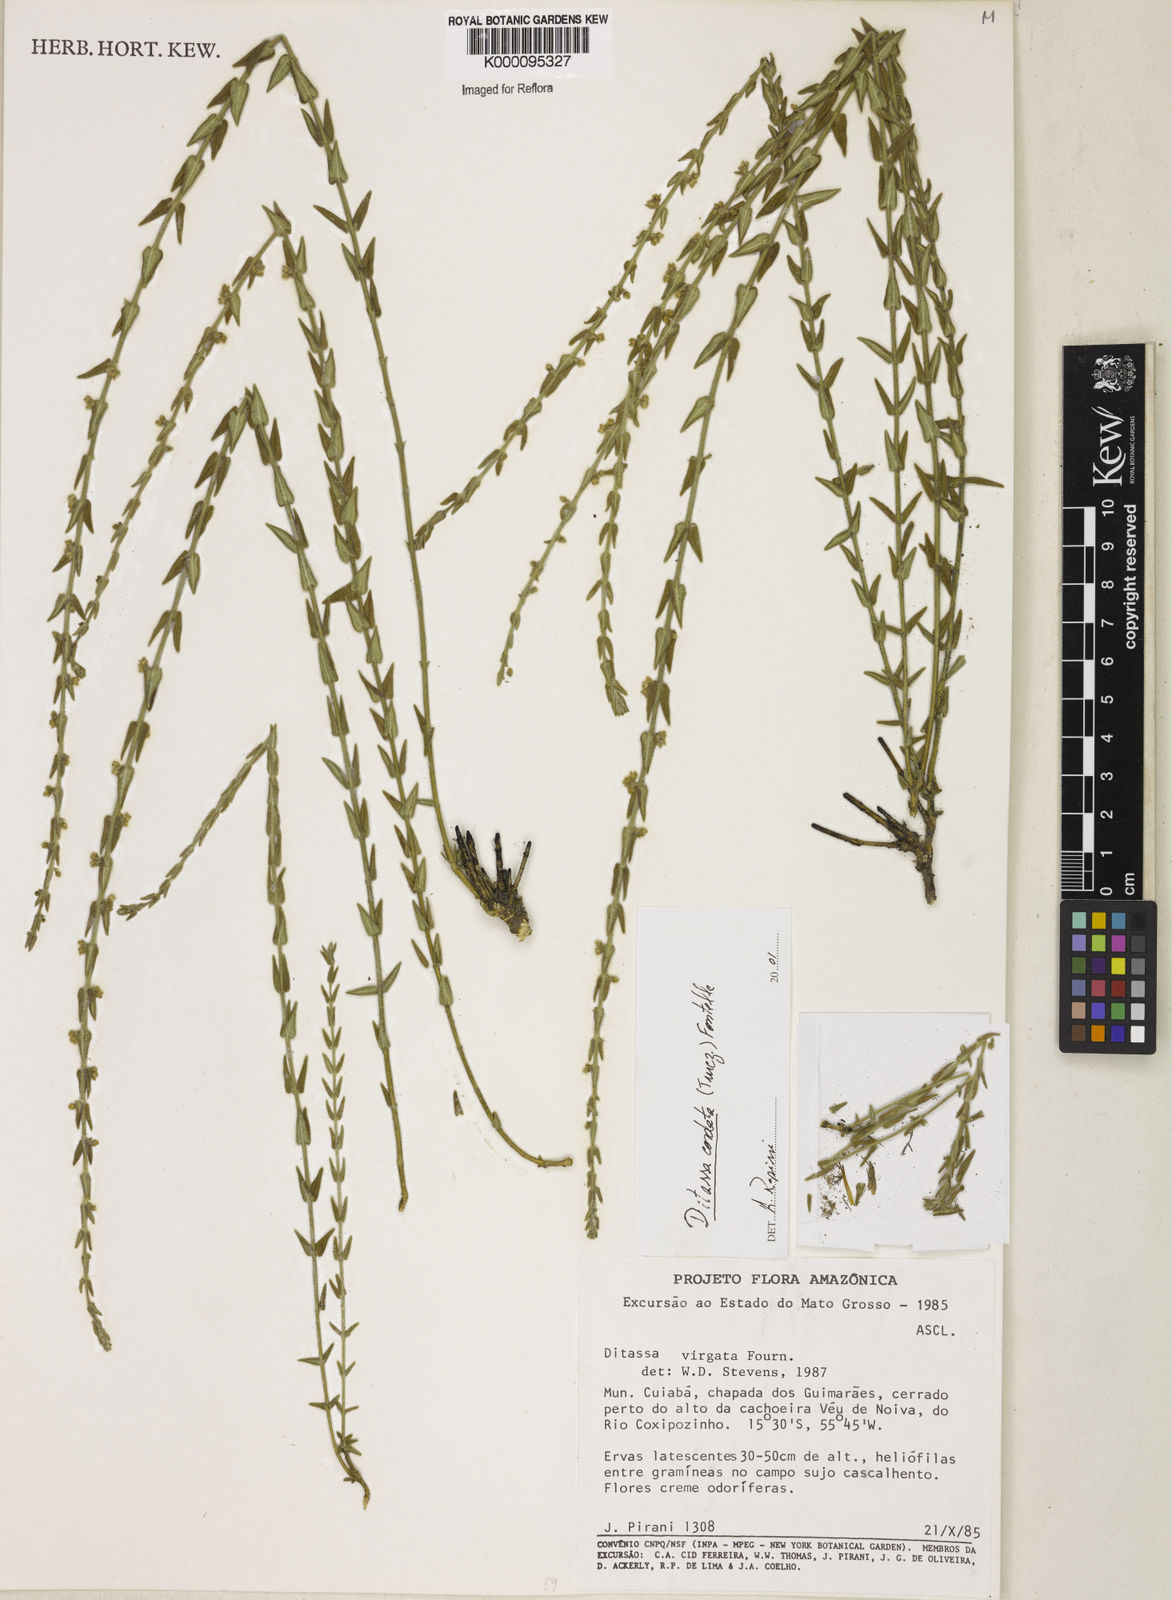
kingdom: Plantae
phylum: Tracheophyta
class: Magnoliopsida
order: Gentianales
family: Apocynaceae
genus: Minaria
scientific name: Minaria cordata
